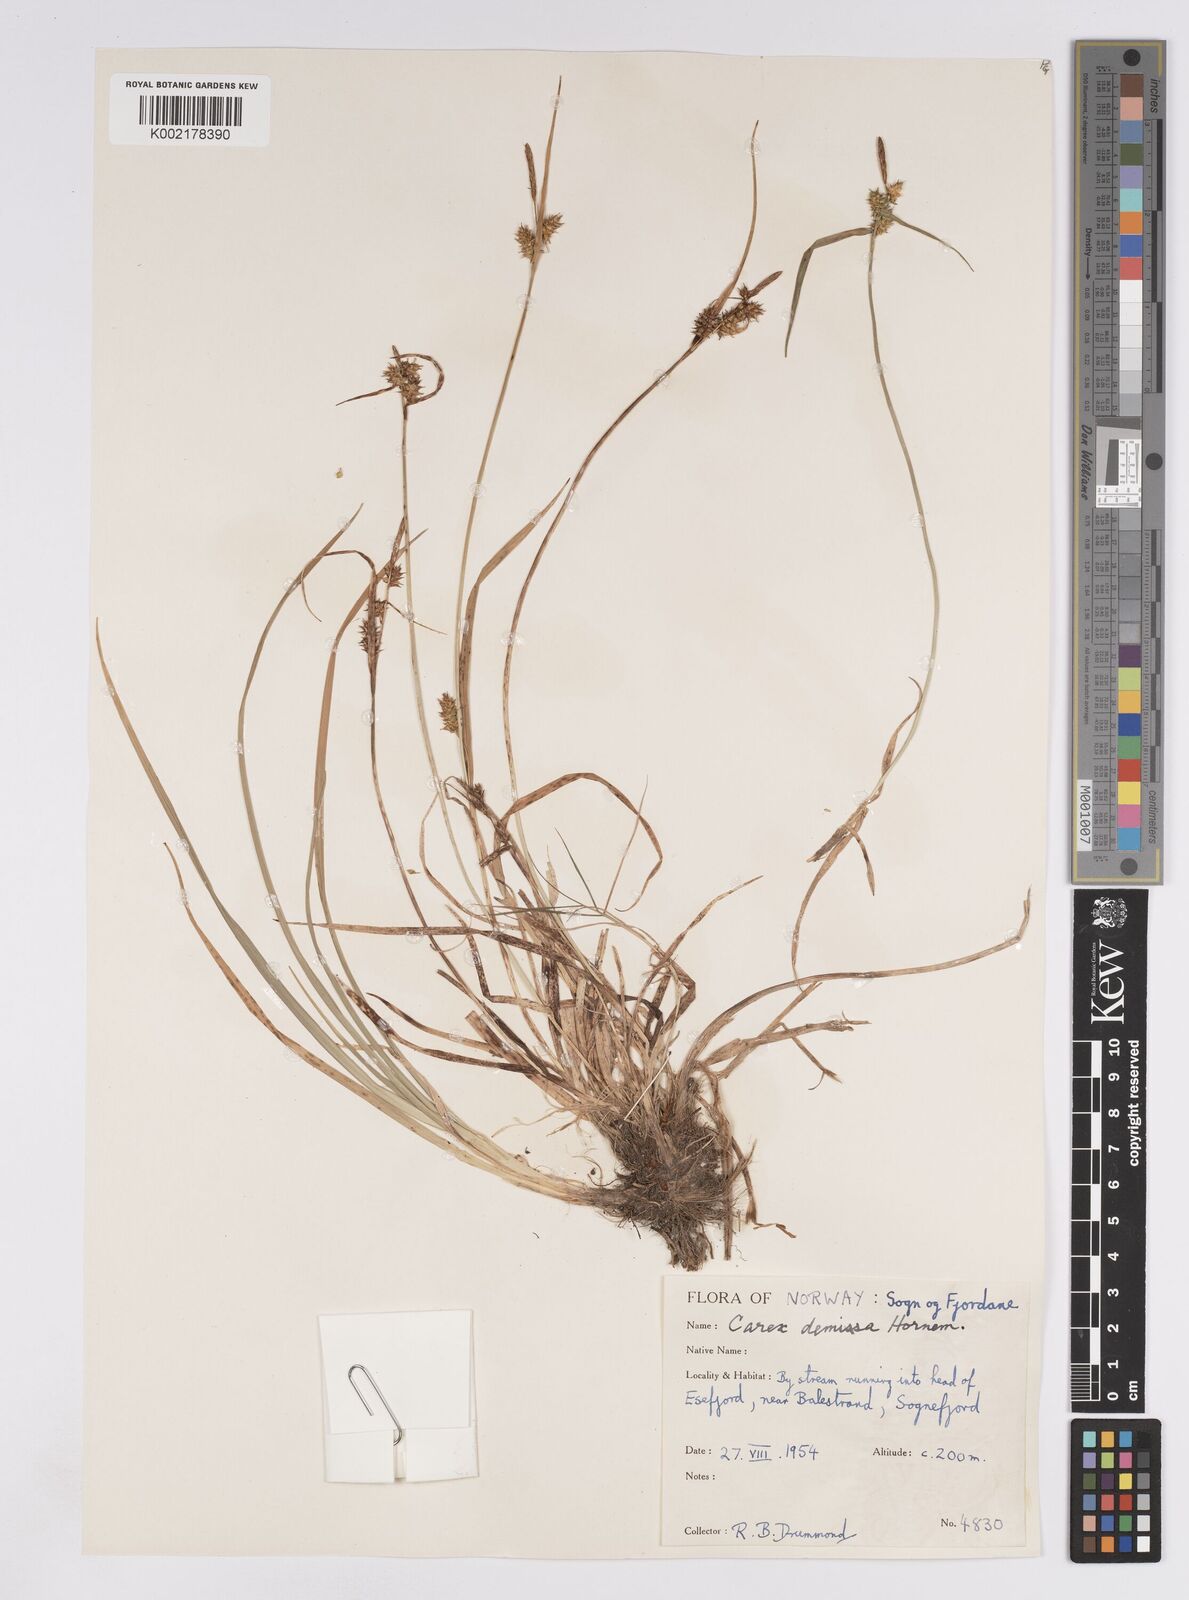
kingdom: Plantae
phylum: Tracheophyta
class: Liliopsida
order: Poales
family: Cyperaceae
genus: Carex
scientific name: Carex demissa
